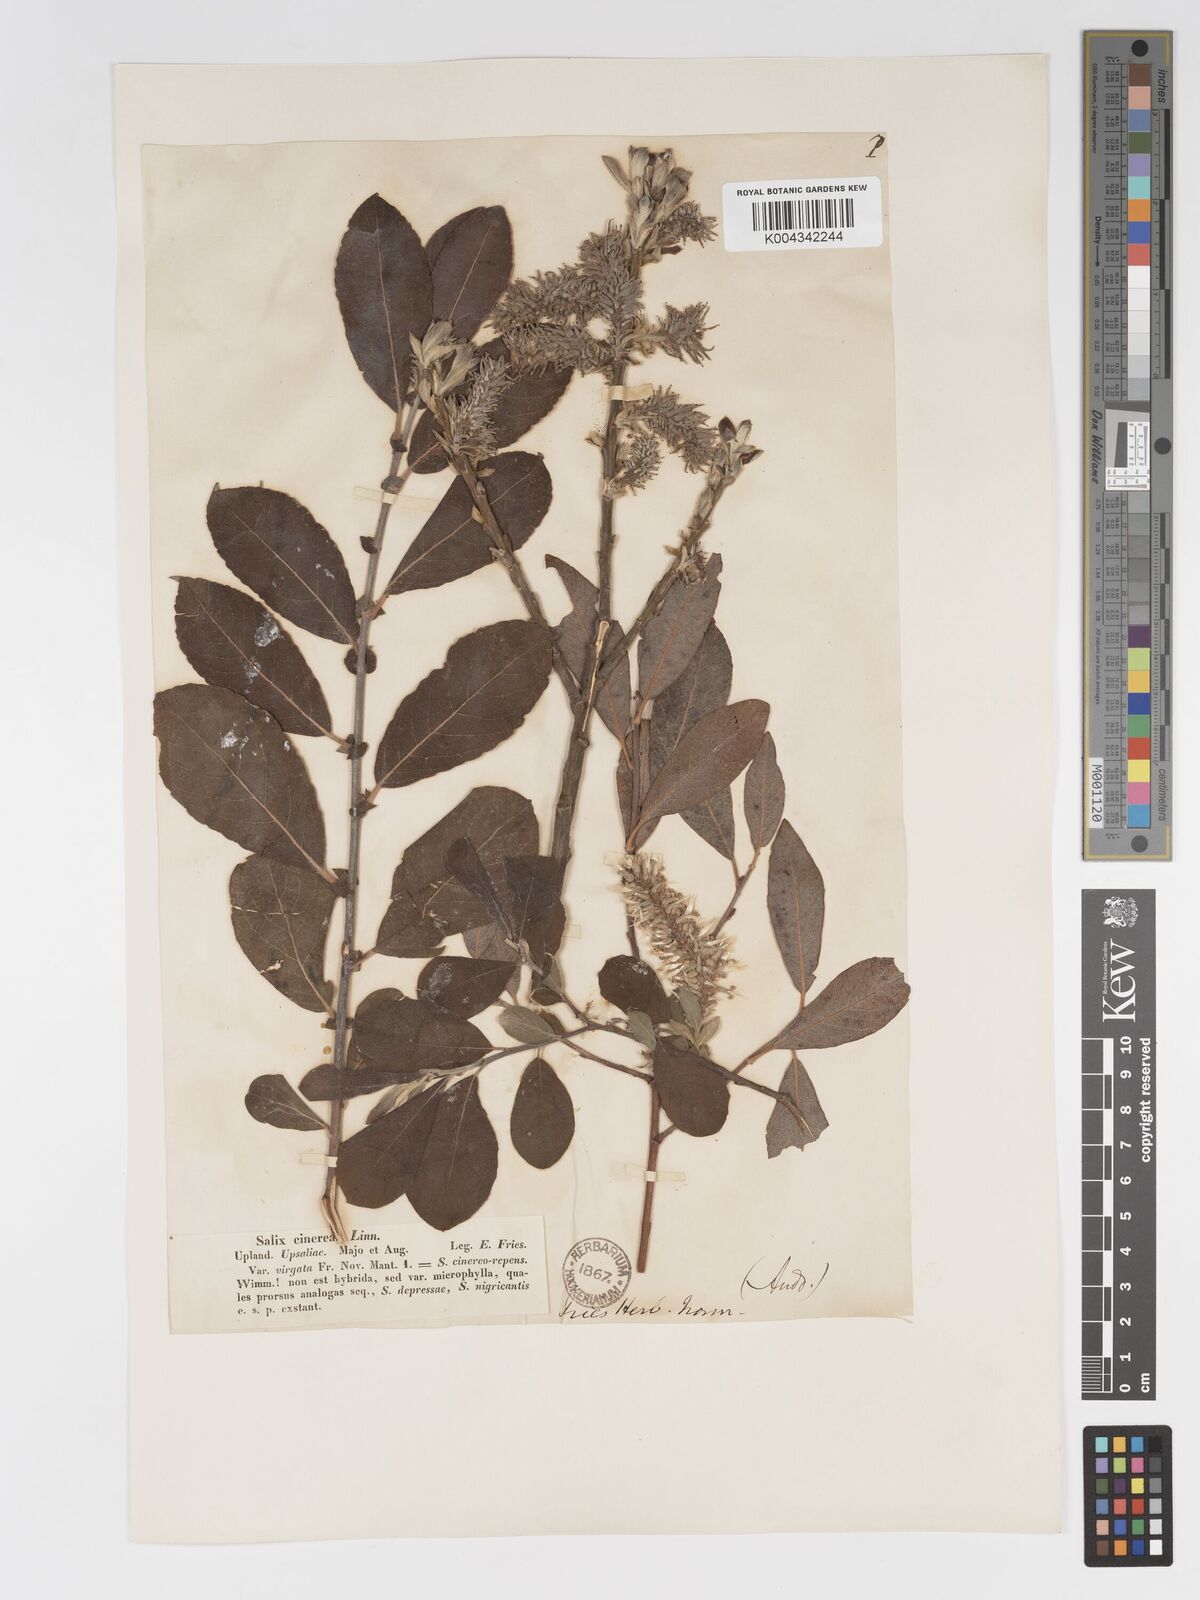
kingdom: Plantae
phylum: Tracheophyta
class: Magnoliopsida
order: Malpighiales
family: Salicaceae
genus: Salix
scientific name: Salix
